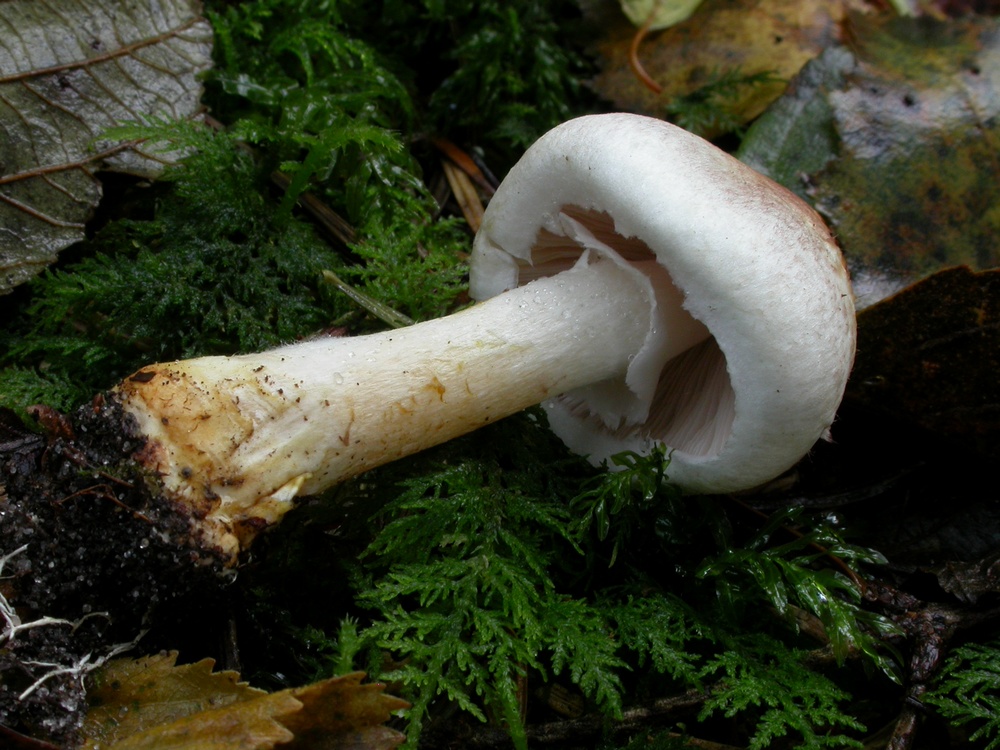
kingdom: Fungi
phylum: Basidiomycota
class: Agaricomycetes
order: Agaricales
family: Agaricaceae
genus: Agaricus
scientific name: Agaricus dulcidulus
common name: blegrød champignon
